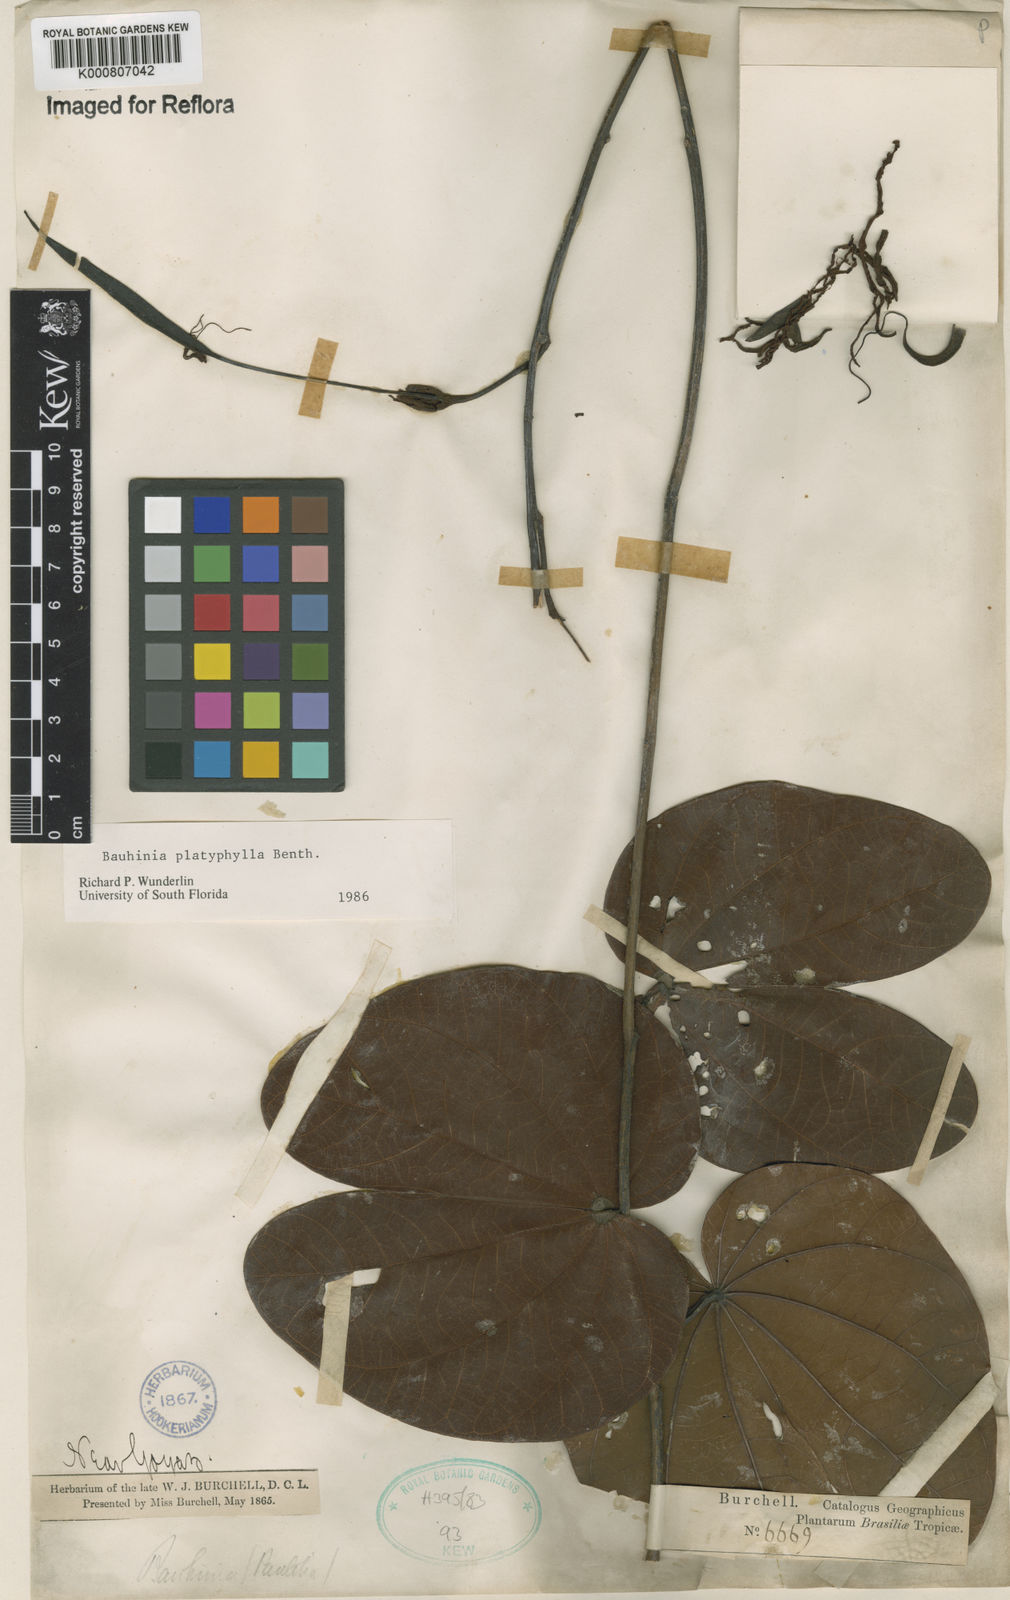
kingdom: Plantae
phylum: Tracheophyta
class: Magnoliopsida
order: Fabales
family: Fabaceae
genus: Bauhinia
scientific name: Bauhinia platyphylla
